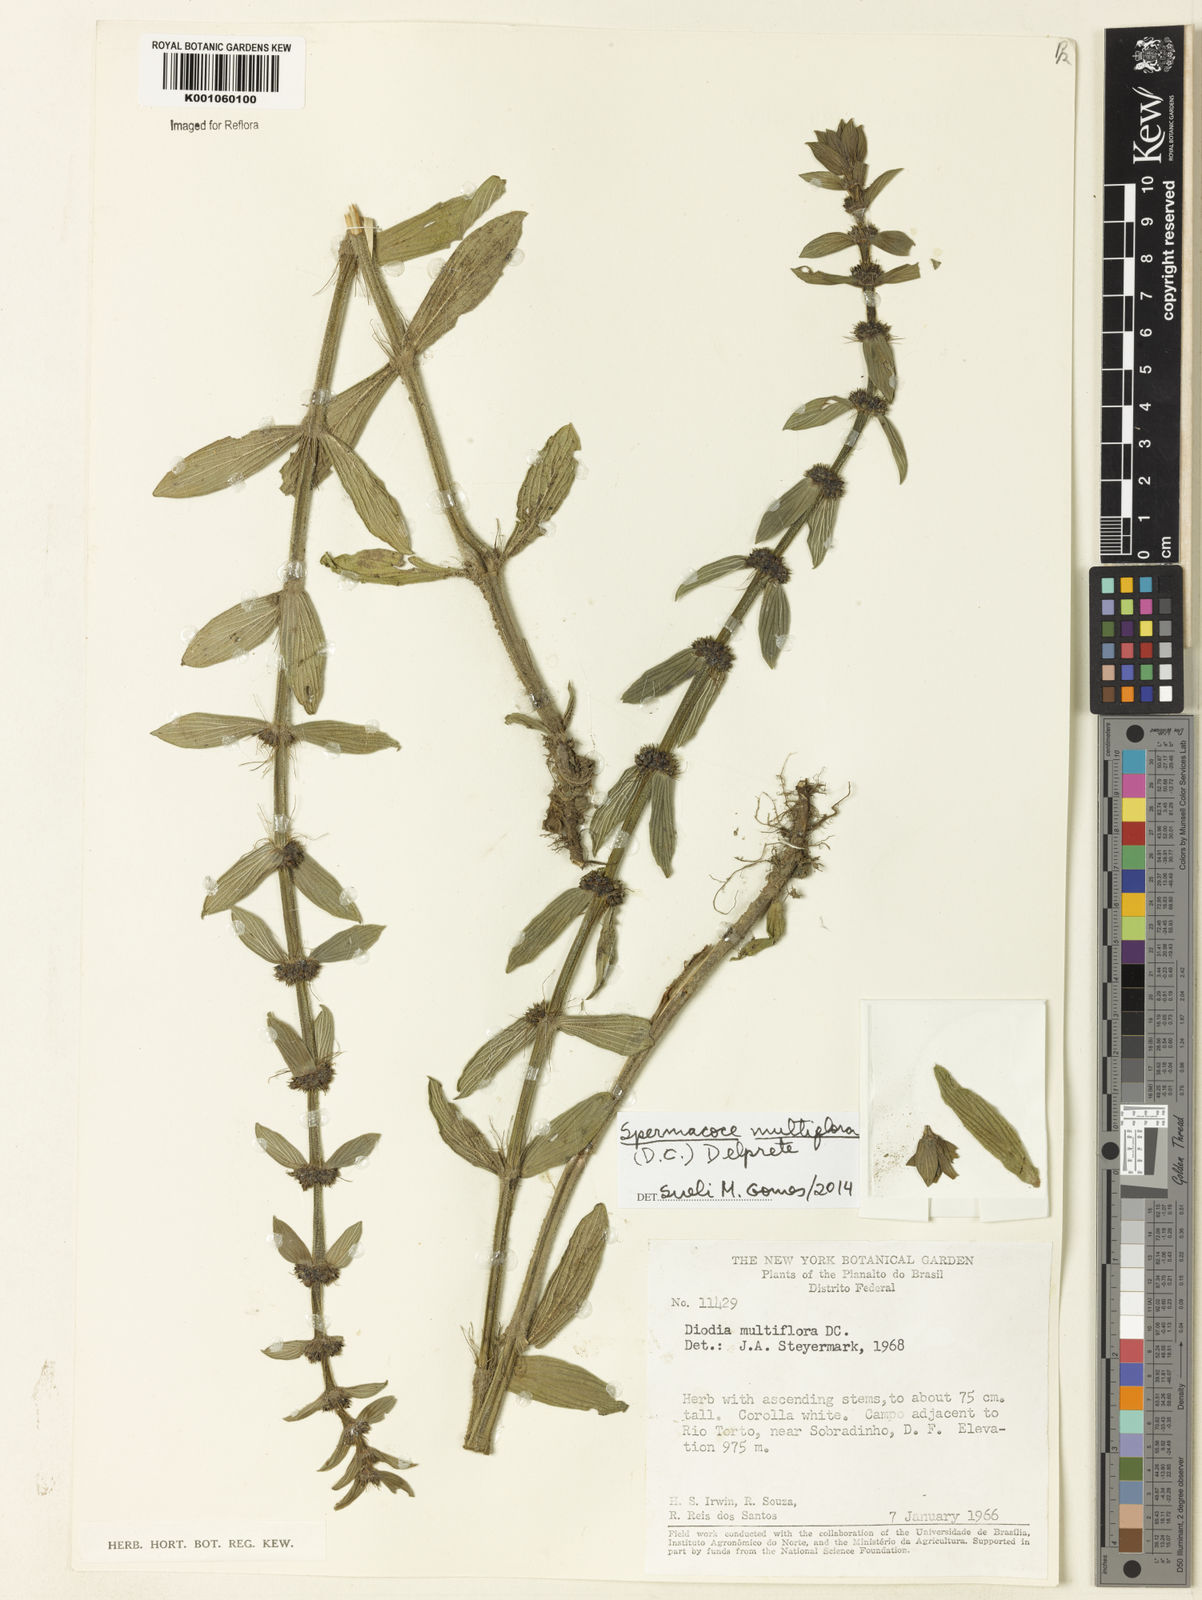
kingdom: Plantae
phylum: Tracheophyta
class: Magnoliopsida
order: Gentianales
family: Rubiaceae
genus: Spermacoce
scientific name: Spermacoce multiflora
